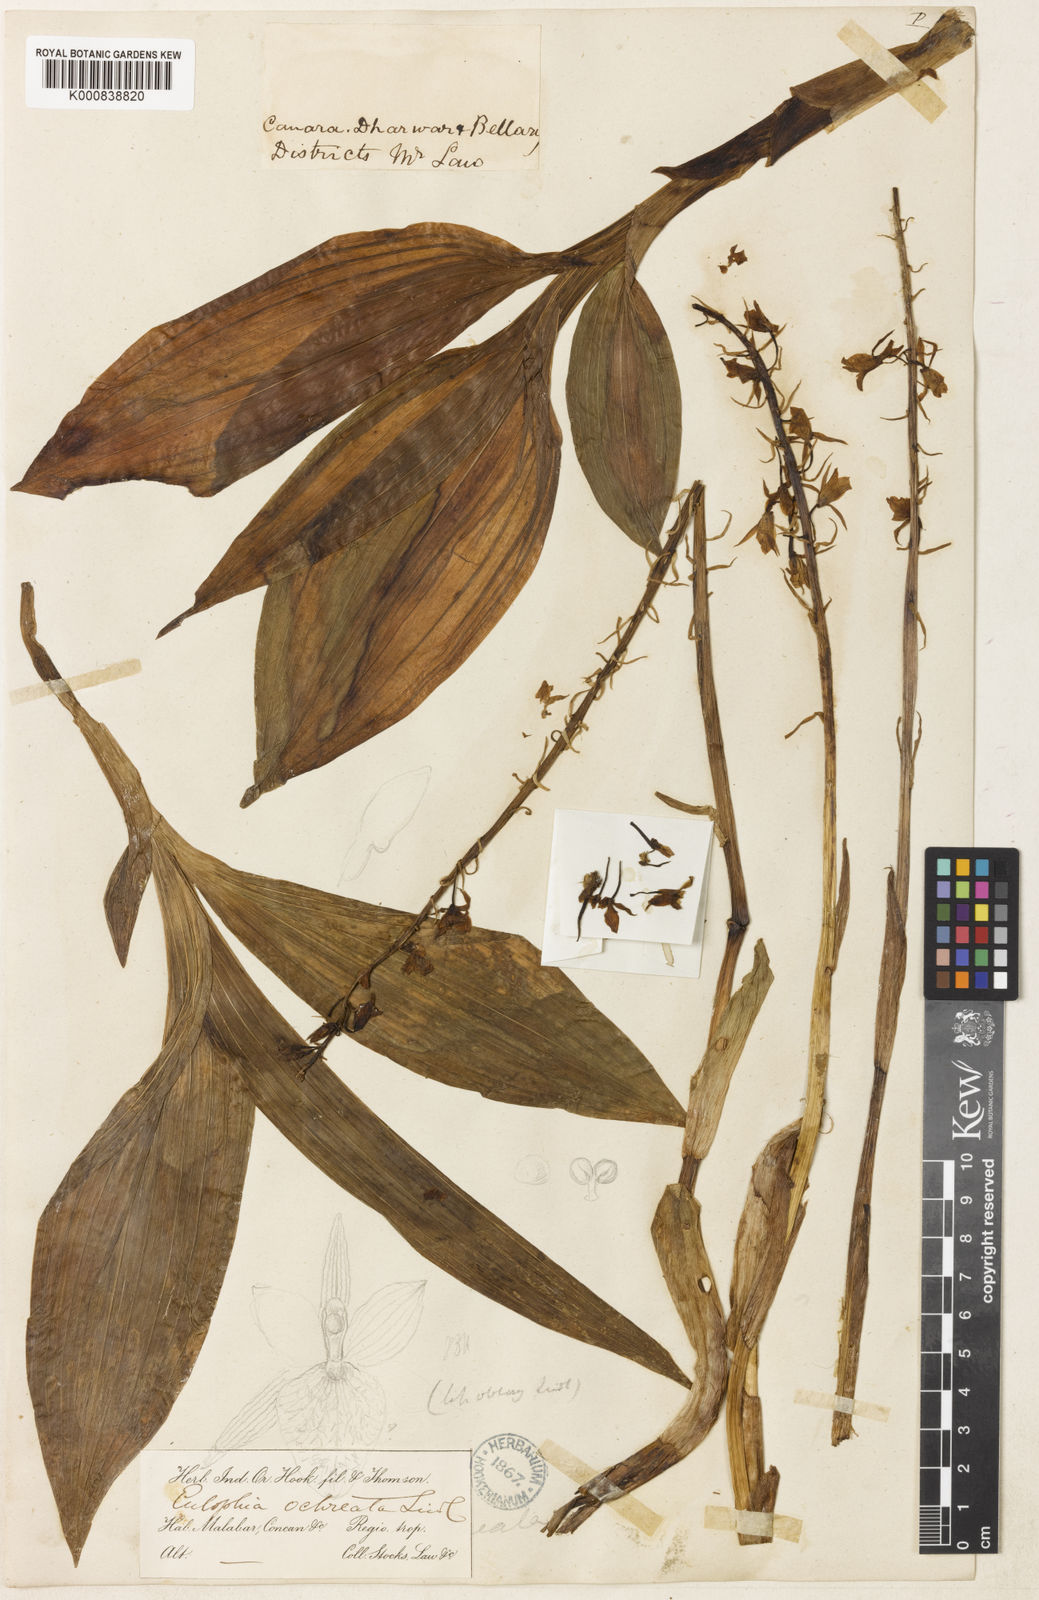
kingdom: Plantae
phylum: Tracheophyta
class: Liliopsida
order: Asparagales
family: Orchidaceae
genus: Eulophia
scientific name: Eulophia ochreata
